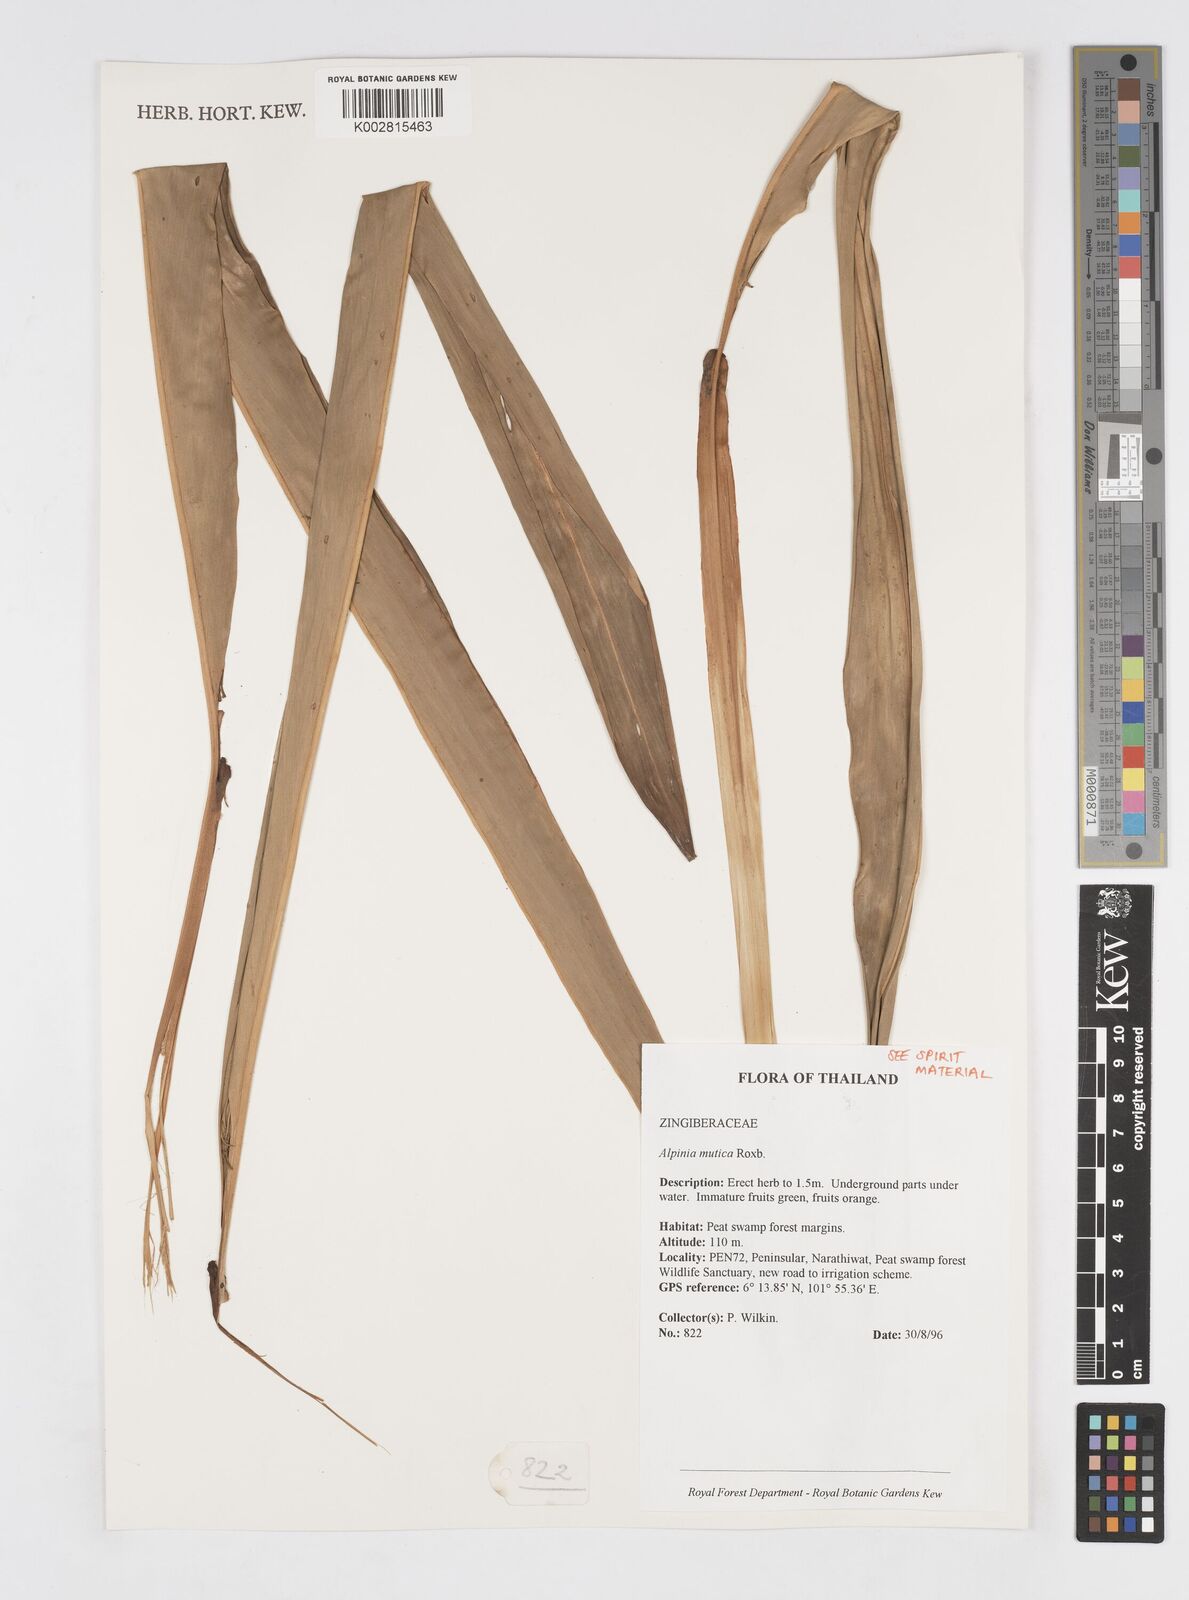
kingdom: Plantae
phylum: Tracheophyta
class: Liliopsida
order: Zingiberales
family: Zingiberaceae
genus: Alpinia
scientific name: Alpinia mutica
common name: Small shell ginger
